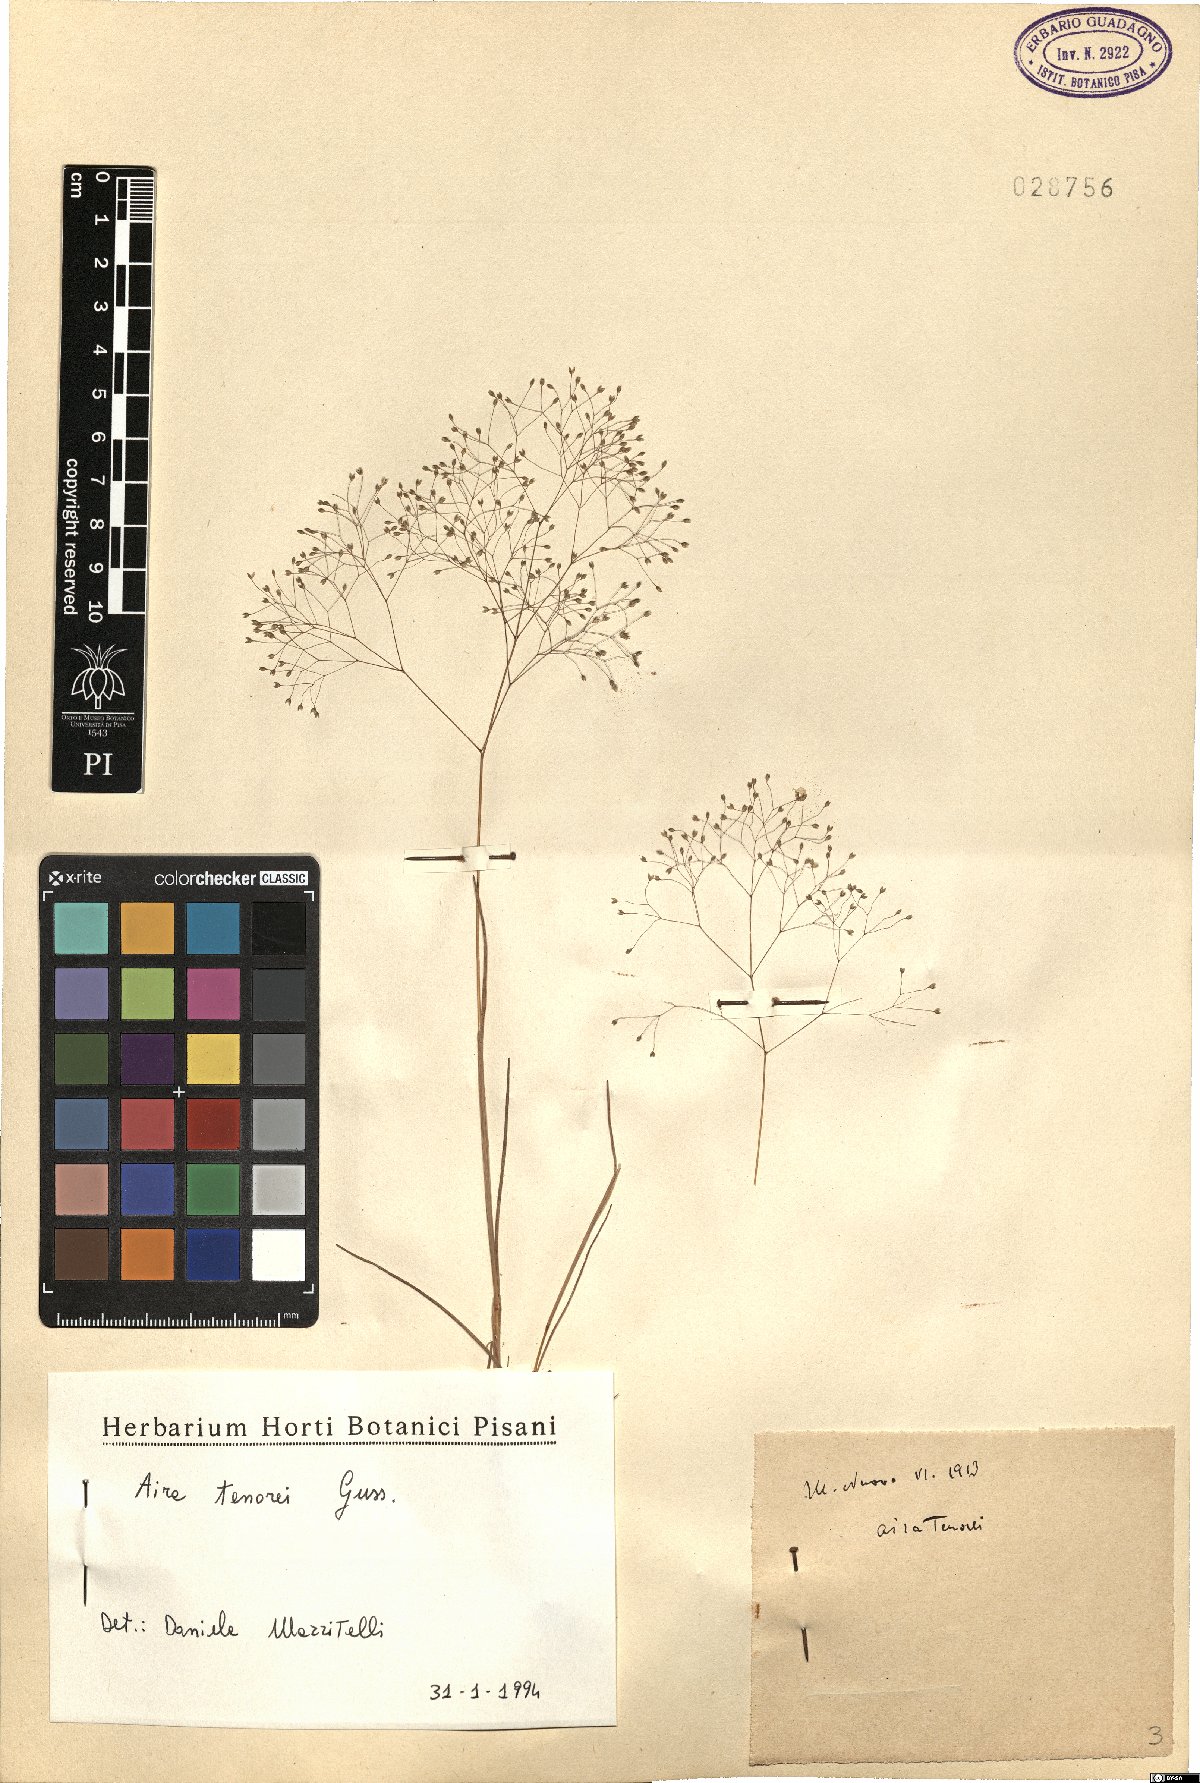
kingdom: Plantae
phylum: Tracheophyta
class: Liliopsida
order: Poales
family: Poaceae
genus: Aira
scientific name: Aira tenorei
